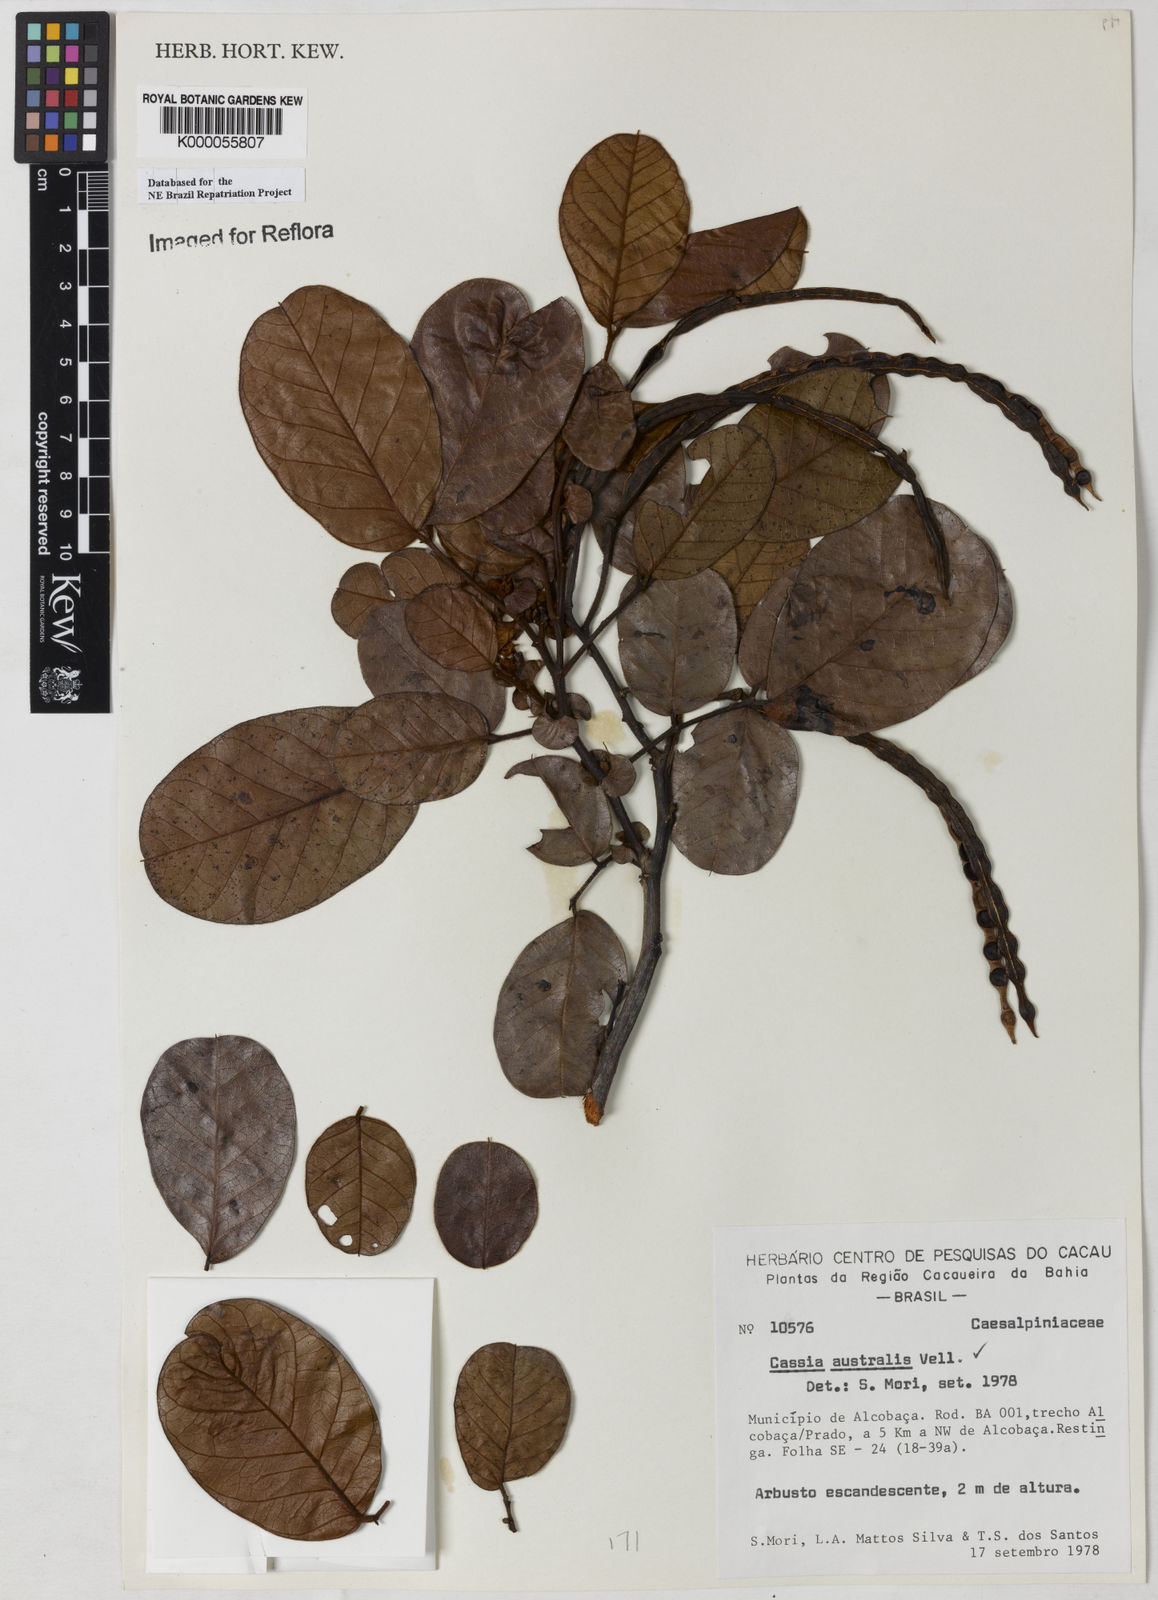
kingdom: Plantae
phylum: Tracheophyta
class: Magnoliopsida
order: Fabales
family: Fabaceae
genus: Senna
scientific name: Senna appendiculata
